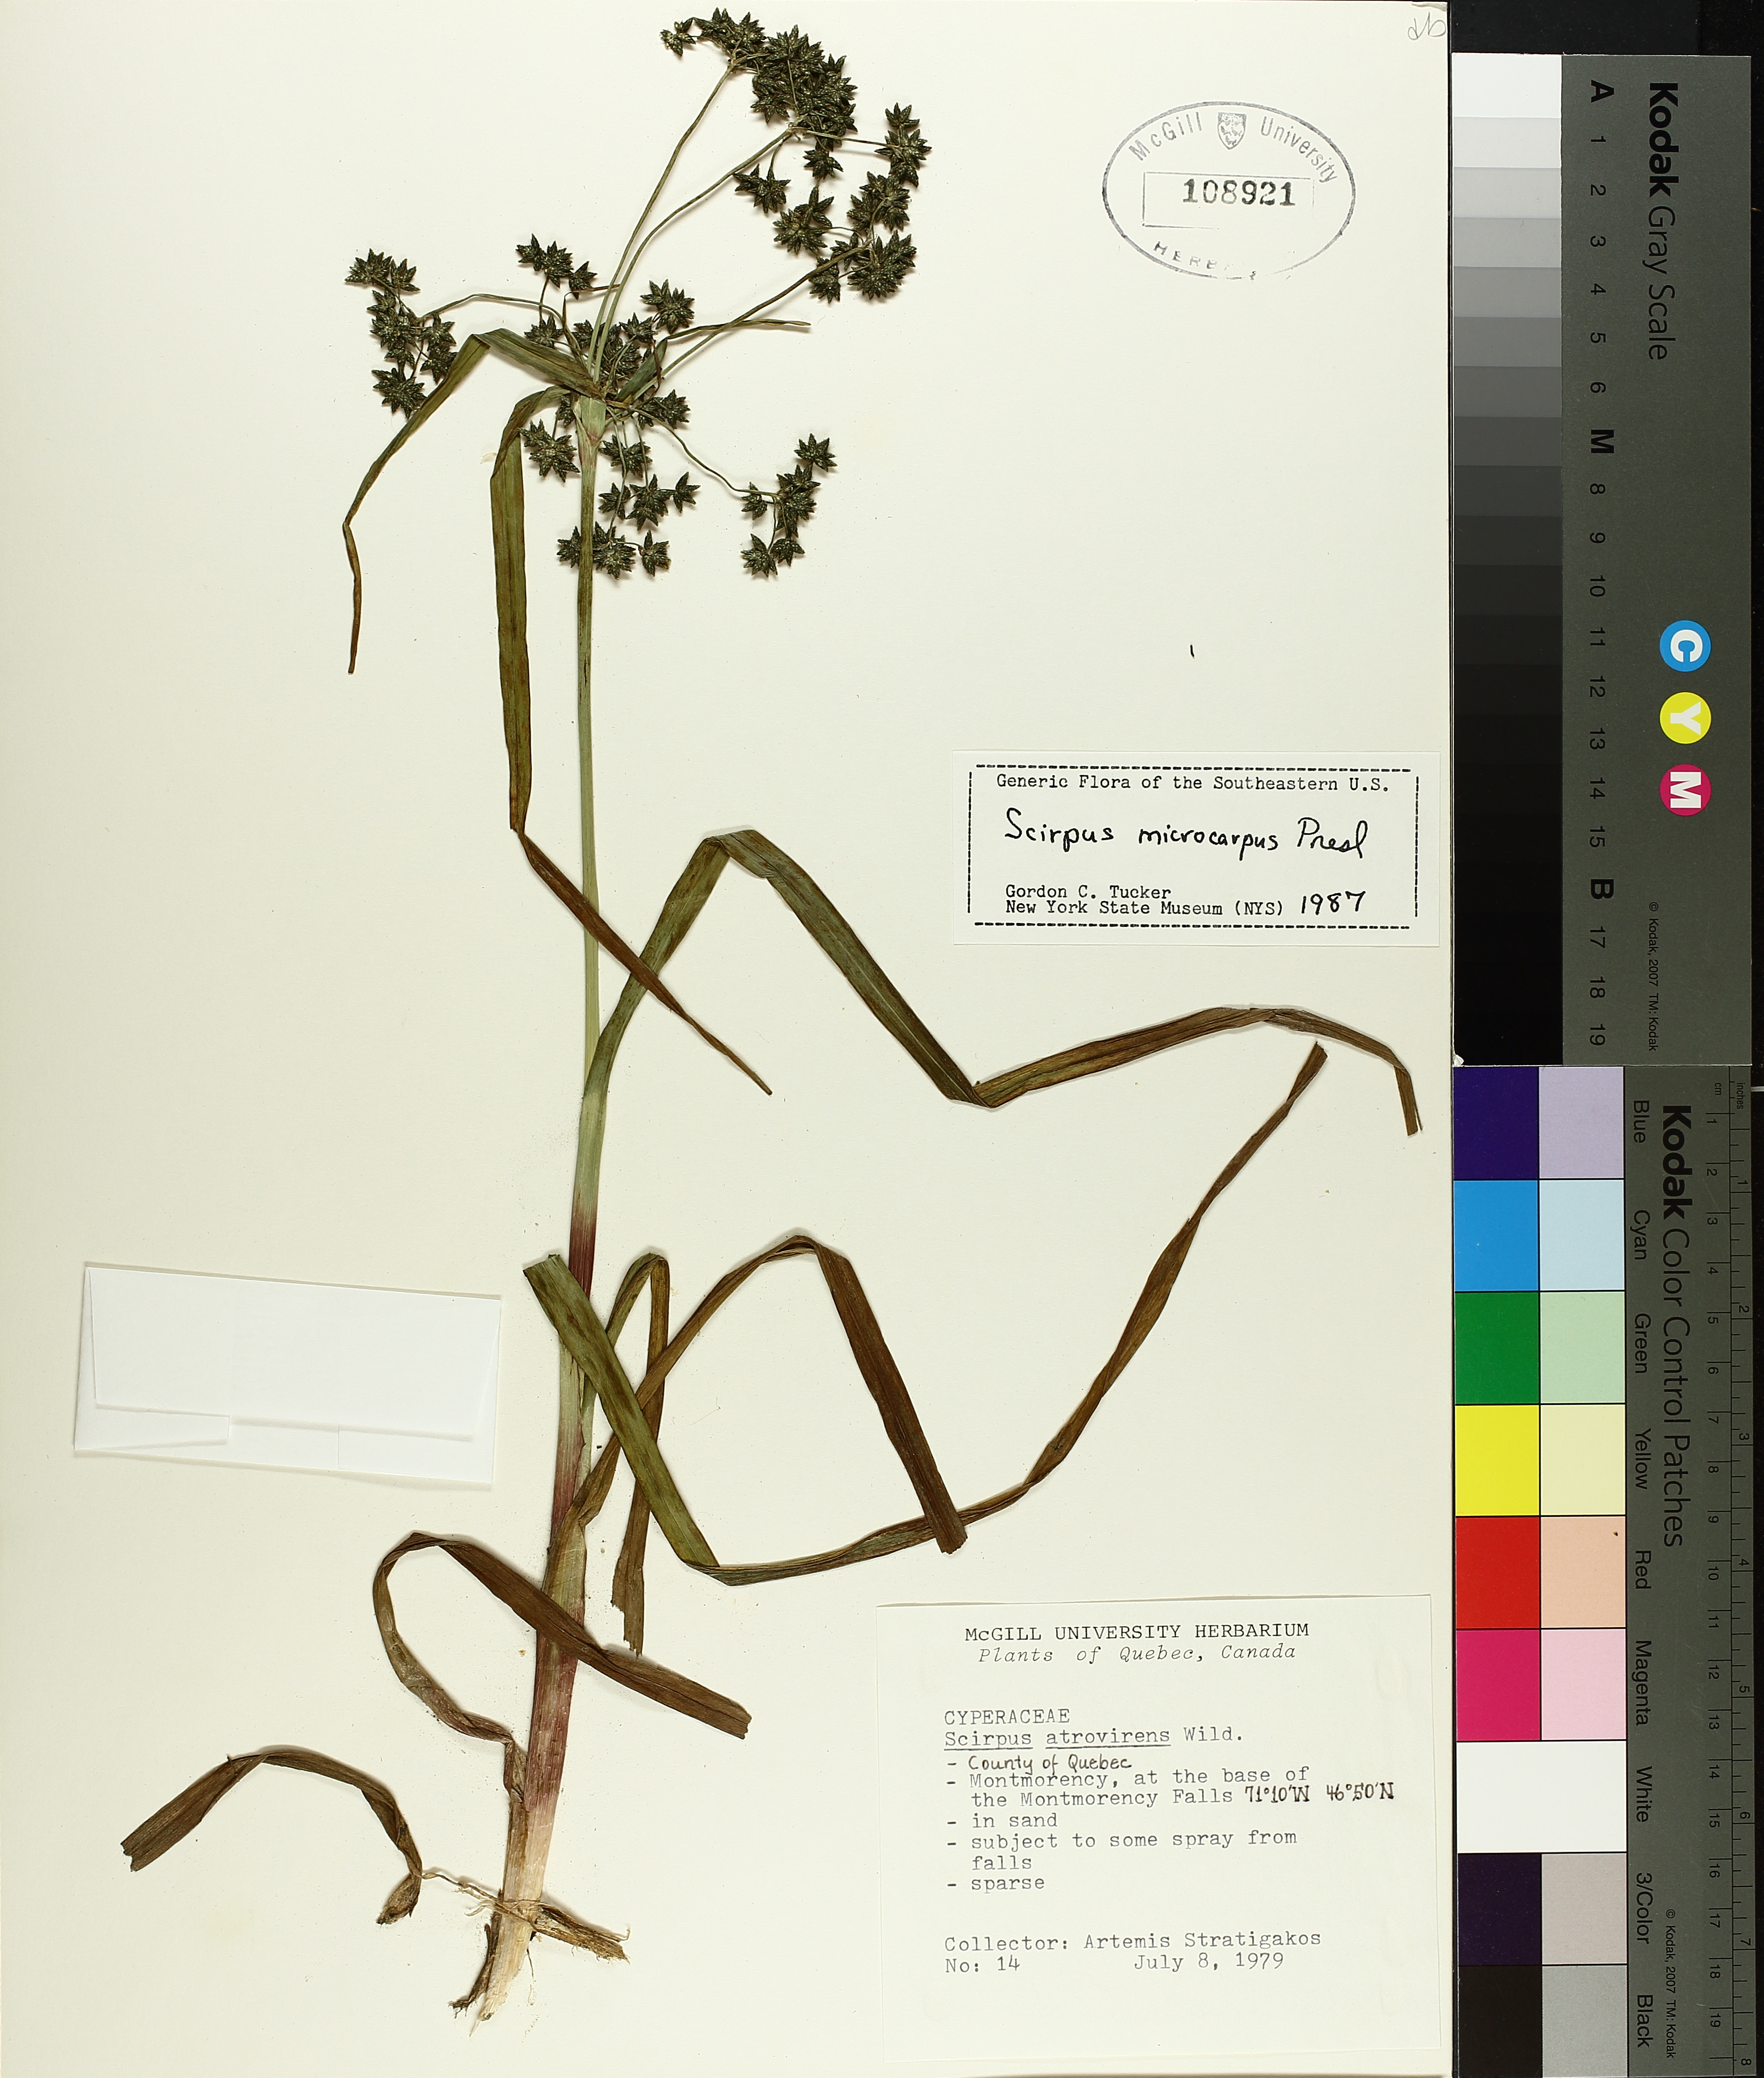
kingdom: Plantae
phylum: Tracheophyta
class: Liliopsida
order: Poales
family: Cyperaceae
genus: Scirpus
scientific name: Scirpus microcarpus
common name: Panicled bulrush
